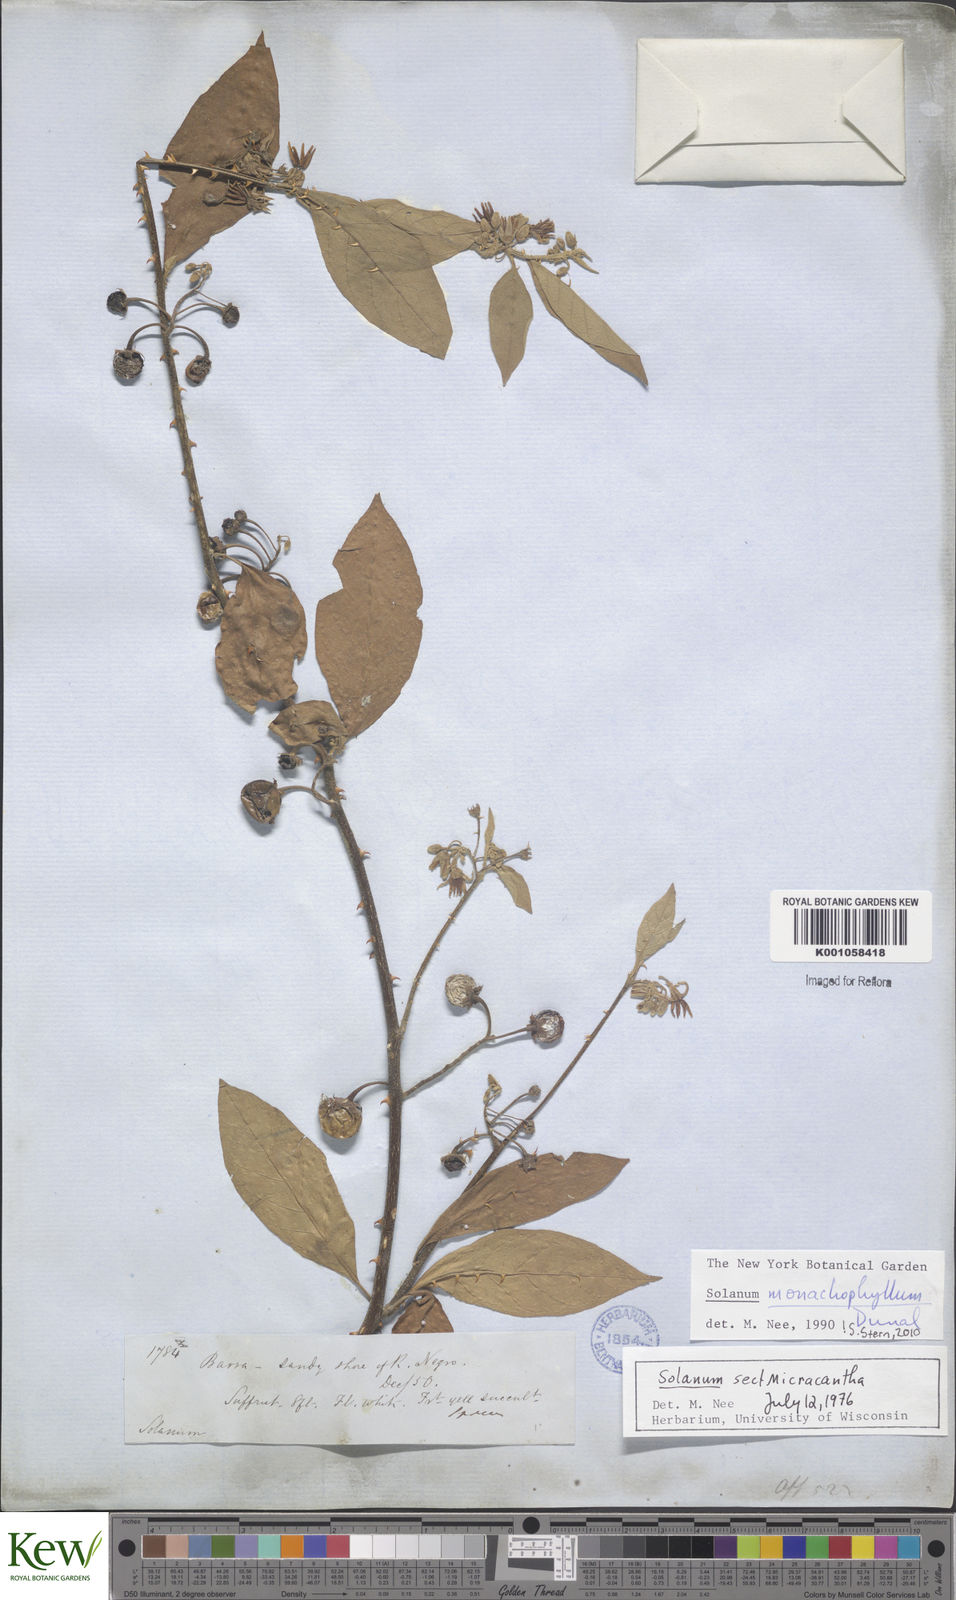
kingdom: Plantae
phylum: Tracheophyta
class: Magnoliopsida
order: Solanales
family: Solanaceae
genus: Solanum
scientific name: Solanum monachophyllum
